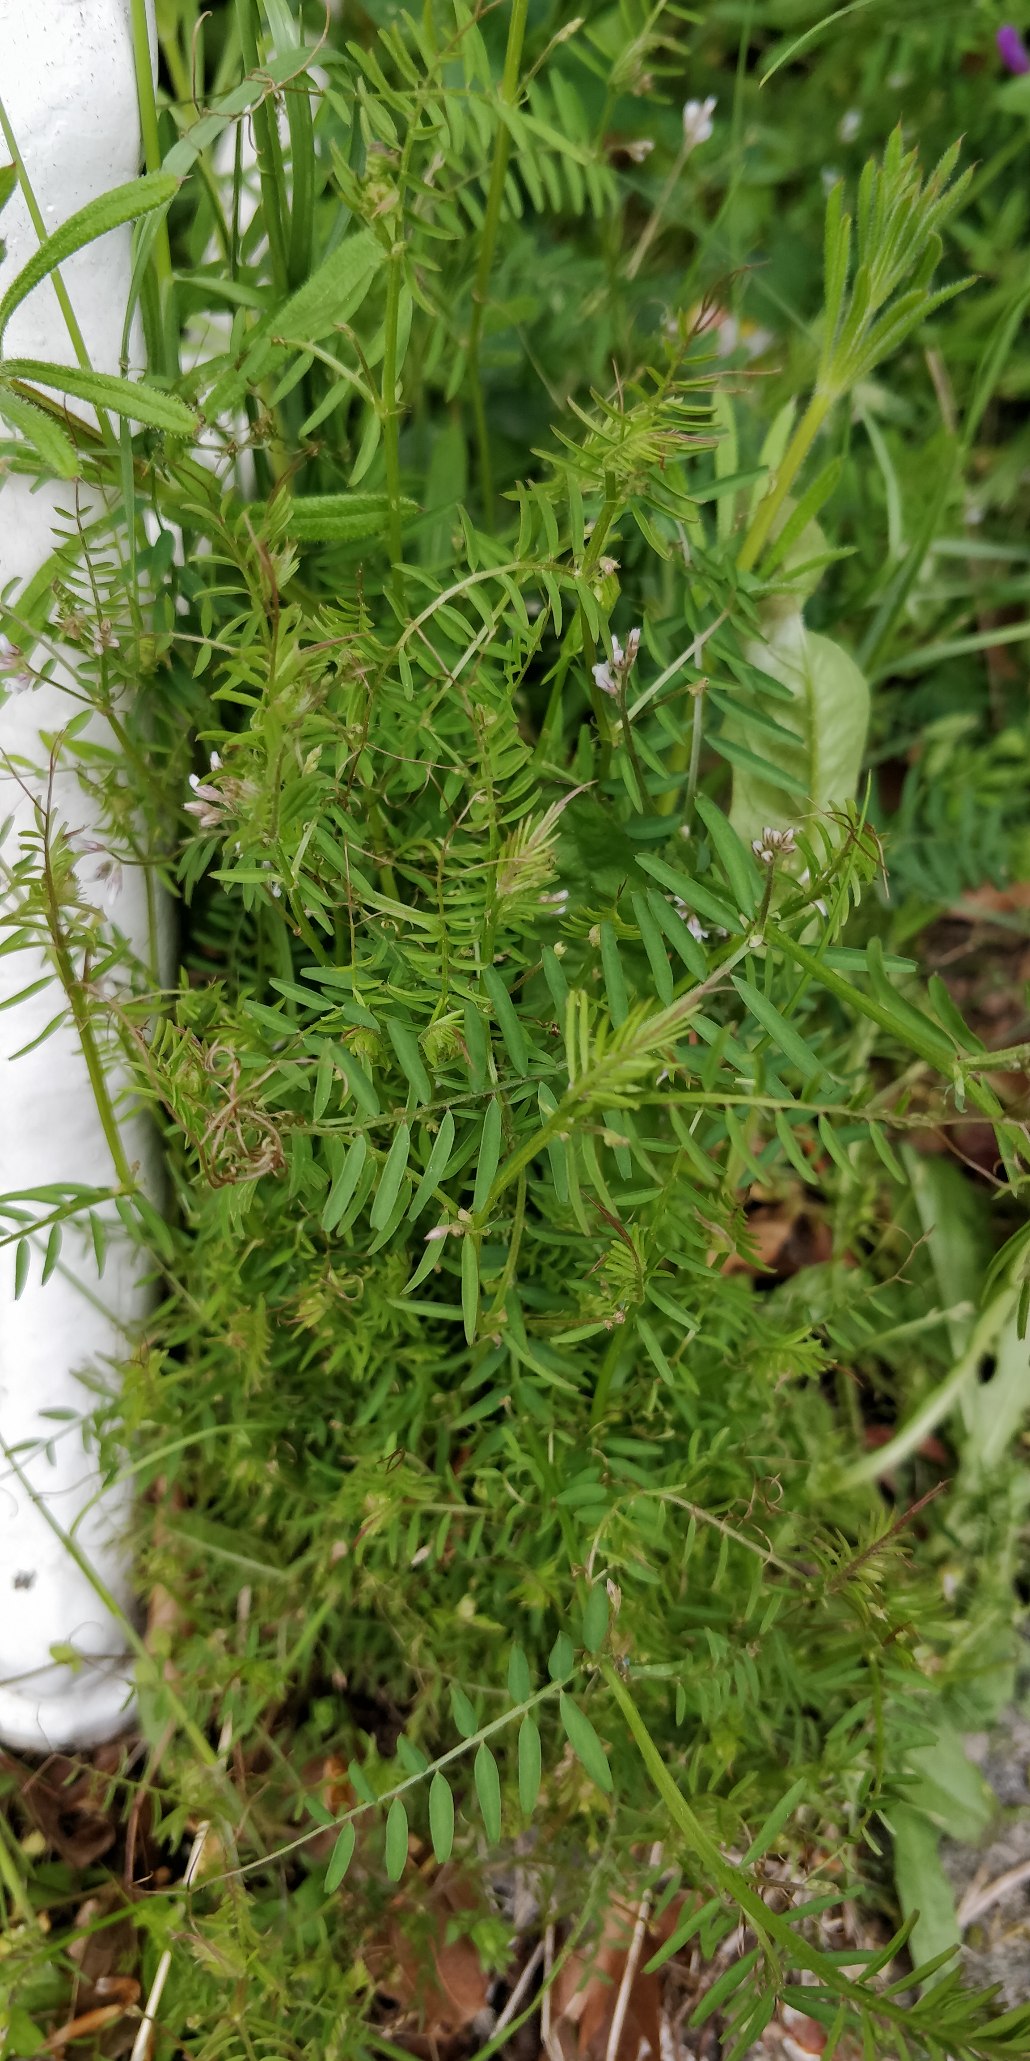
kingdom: Plantae
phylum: Tracheophyta
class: Magnoliopsida
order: Fabales
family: Fabaceae
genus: Vicia
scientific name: Vicia hirsuta
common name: Tofrøet vikke
